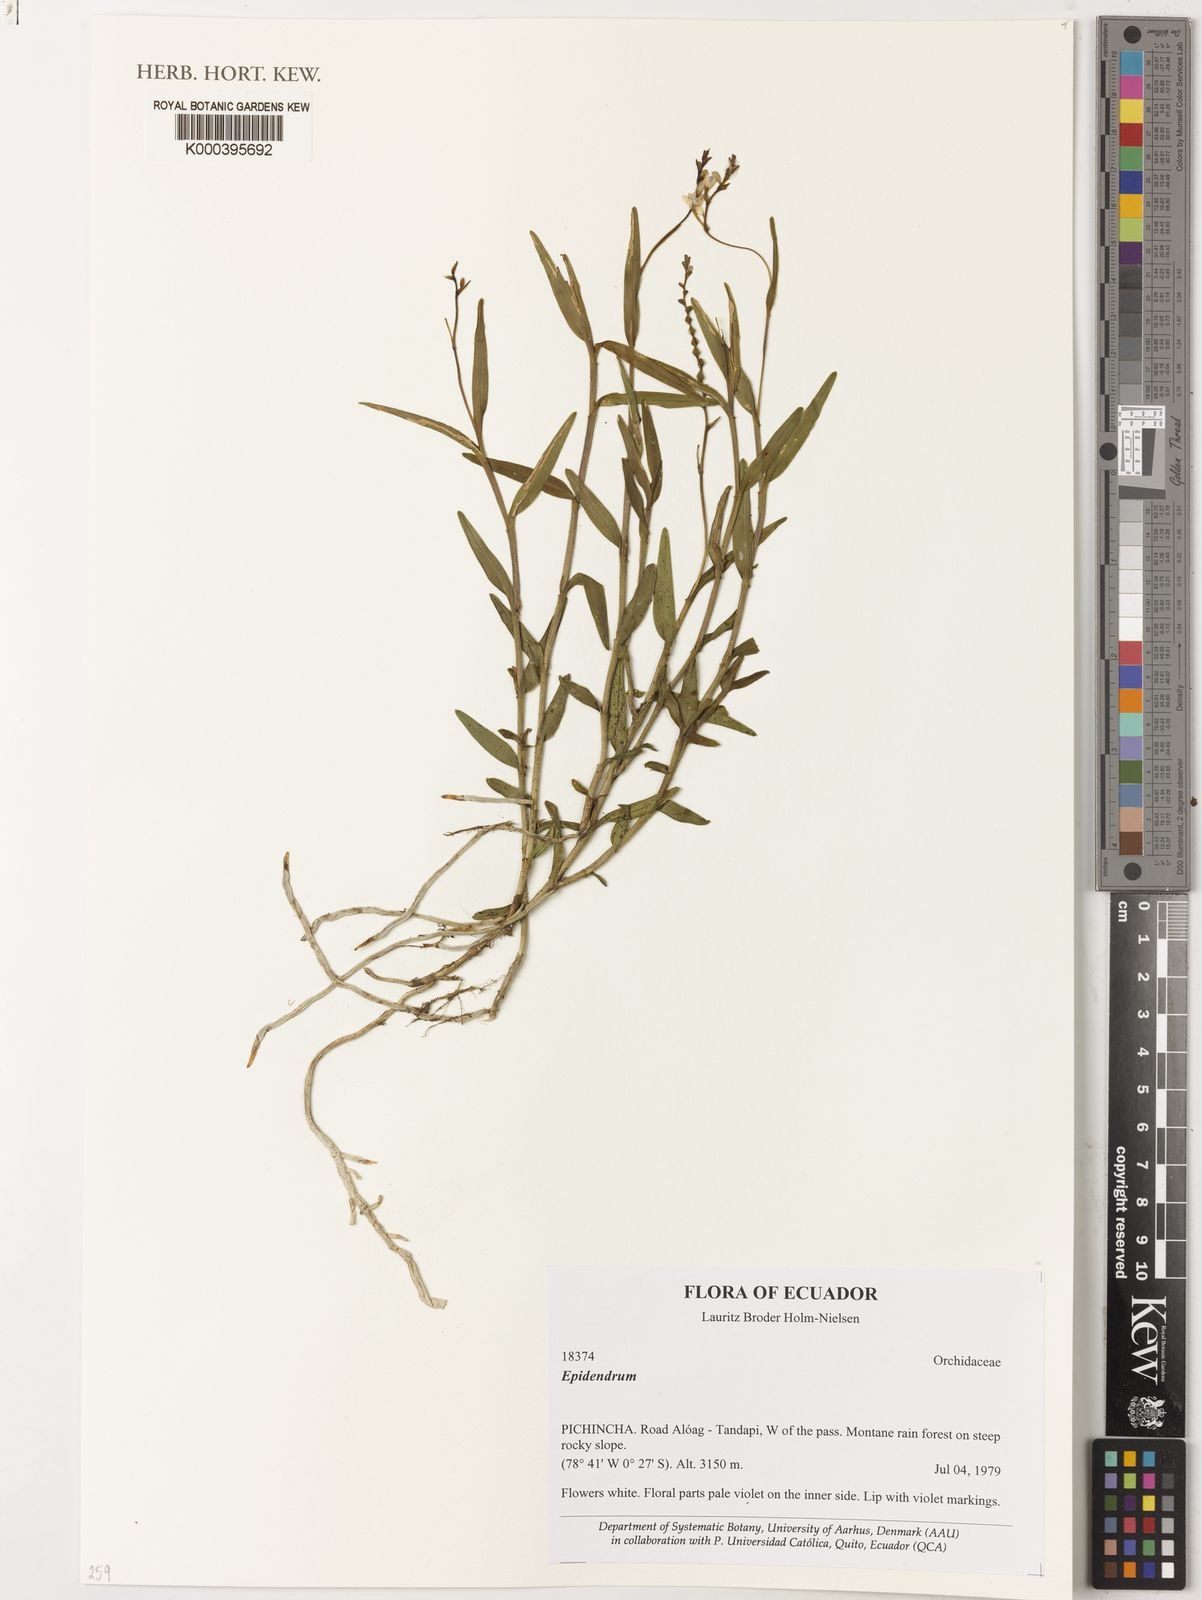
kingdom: Plantae
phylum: Tracheophyta
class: Liliopsida
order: Asparagales
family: Orchidaceae
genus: Epidendrum
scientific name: Epidendrum
